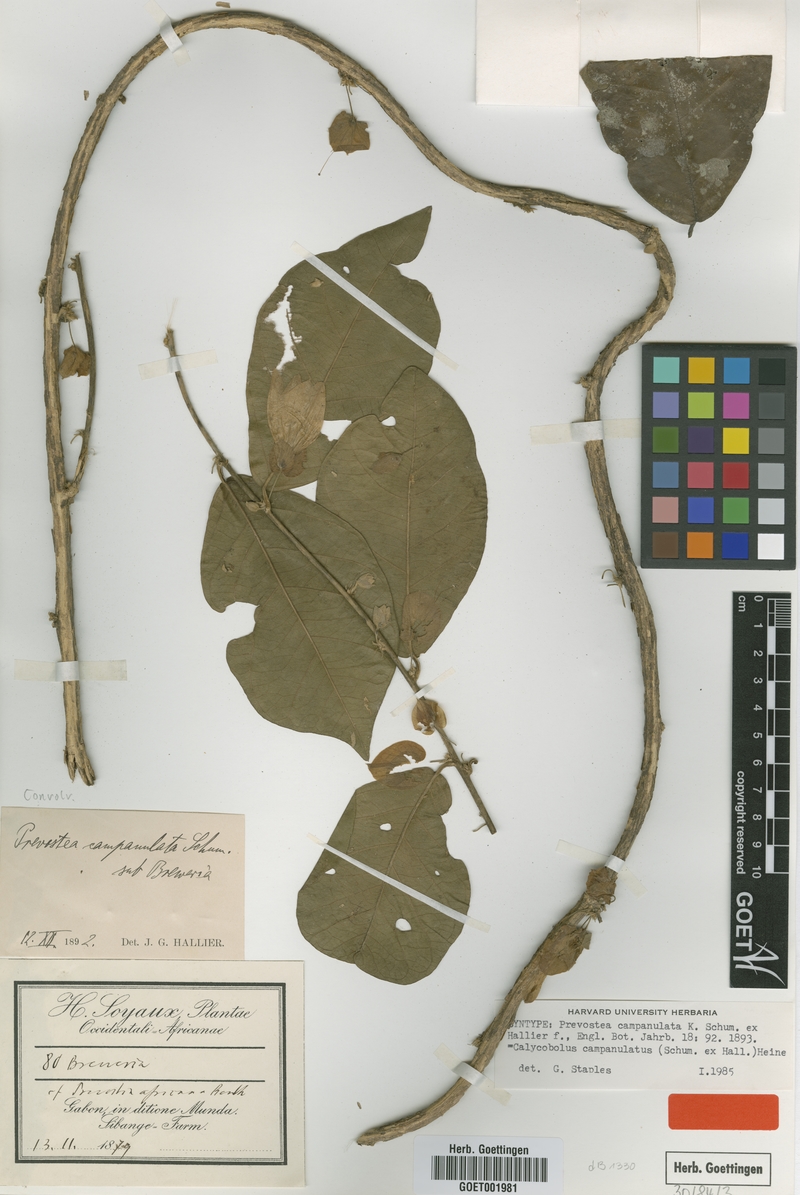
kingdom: Plantae
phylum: Tracheophyta
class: Magnoliopsida
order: Solanales
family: Convolvulaceae
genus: Calycobolus
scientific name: Calycobolus campanulatus
